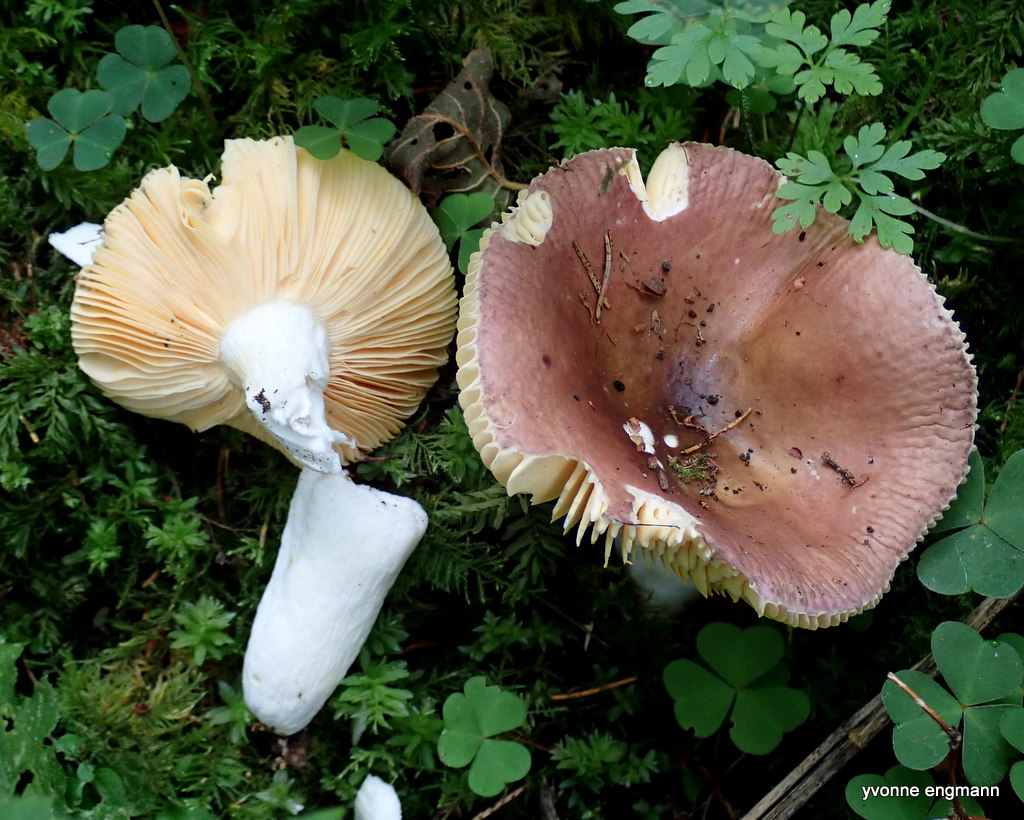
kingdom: Fungi
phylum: Basidiomycota
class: Agaricomycetes
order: Russulales
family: Russulaceae
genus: Russula
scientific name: Russula
